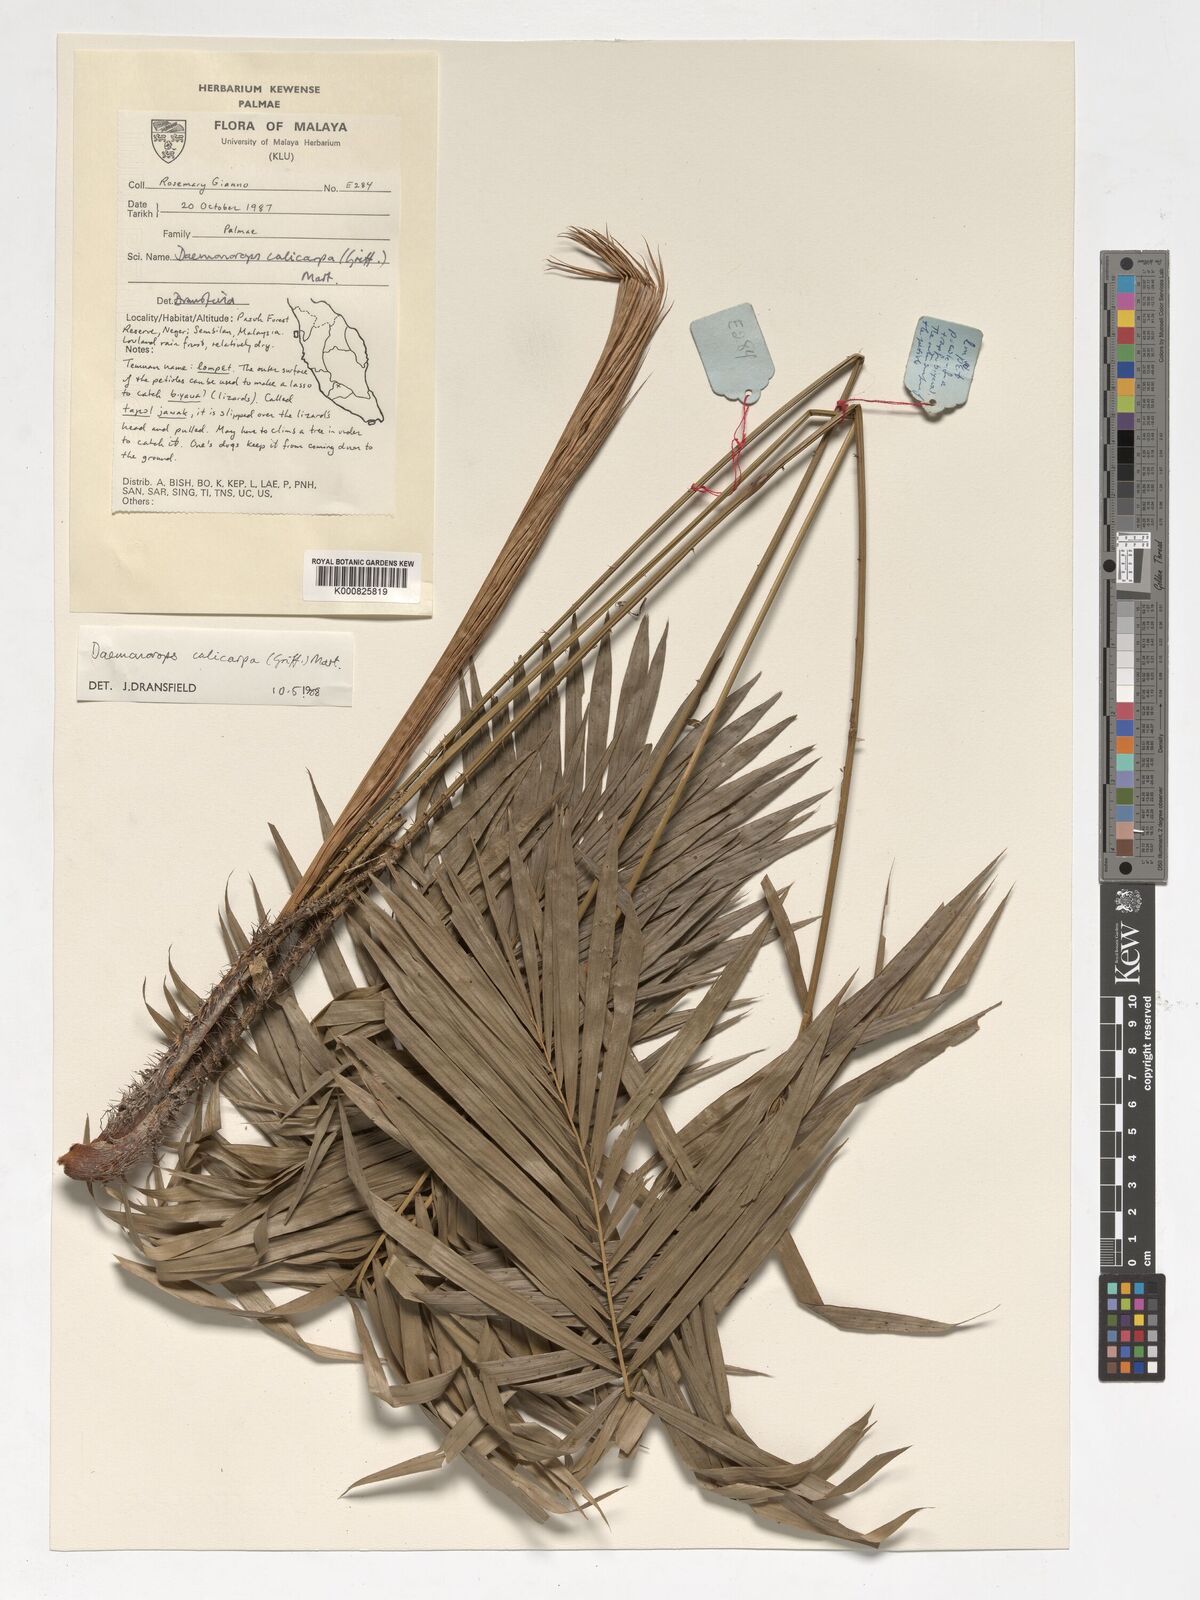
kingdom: Plantae
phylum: Tracheophyta
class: Liliopsida
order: Arecales
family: Arecaceae
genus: Calamus
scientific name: Calamus calicarpus
